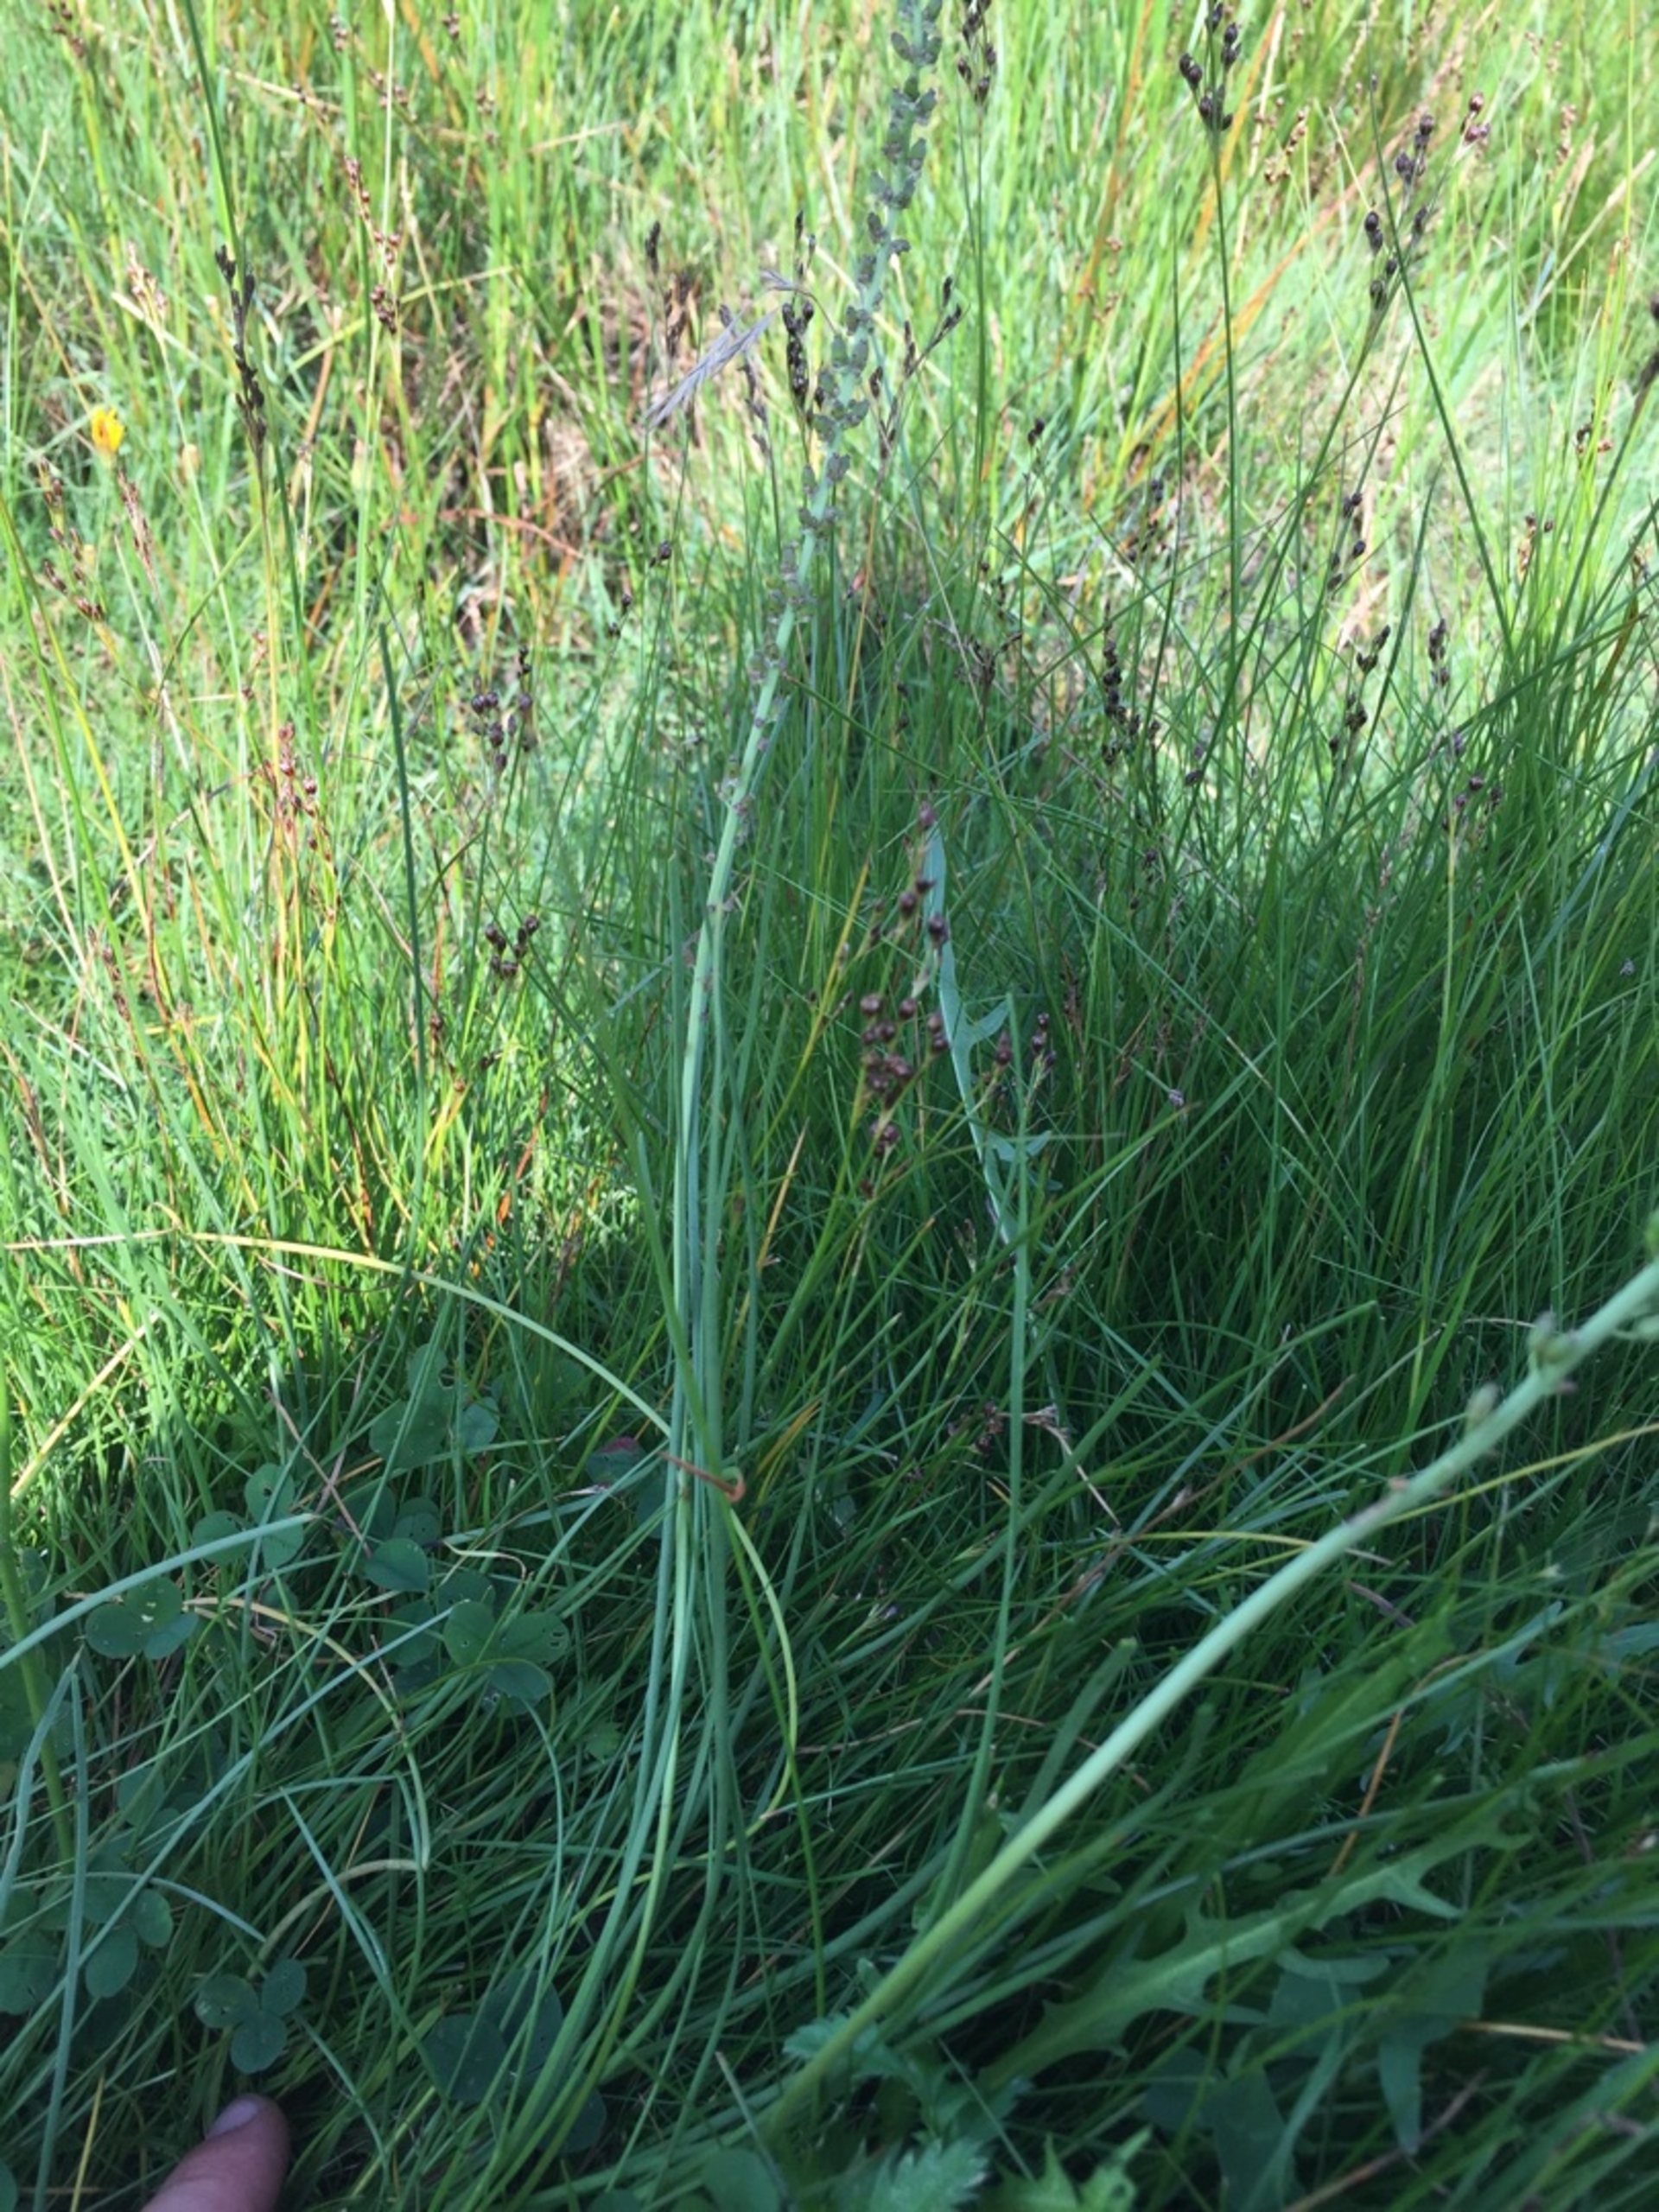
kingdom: Plantae
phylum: Tracheophyta
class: Liliopsida
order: Alismatales
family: Juncaginaceae
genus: Triglochin
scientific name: Triglochin maritima
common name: Strand-trehage
